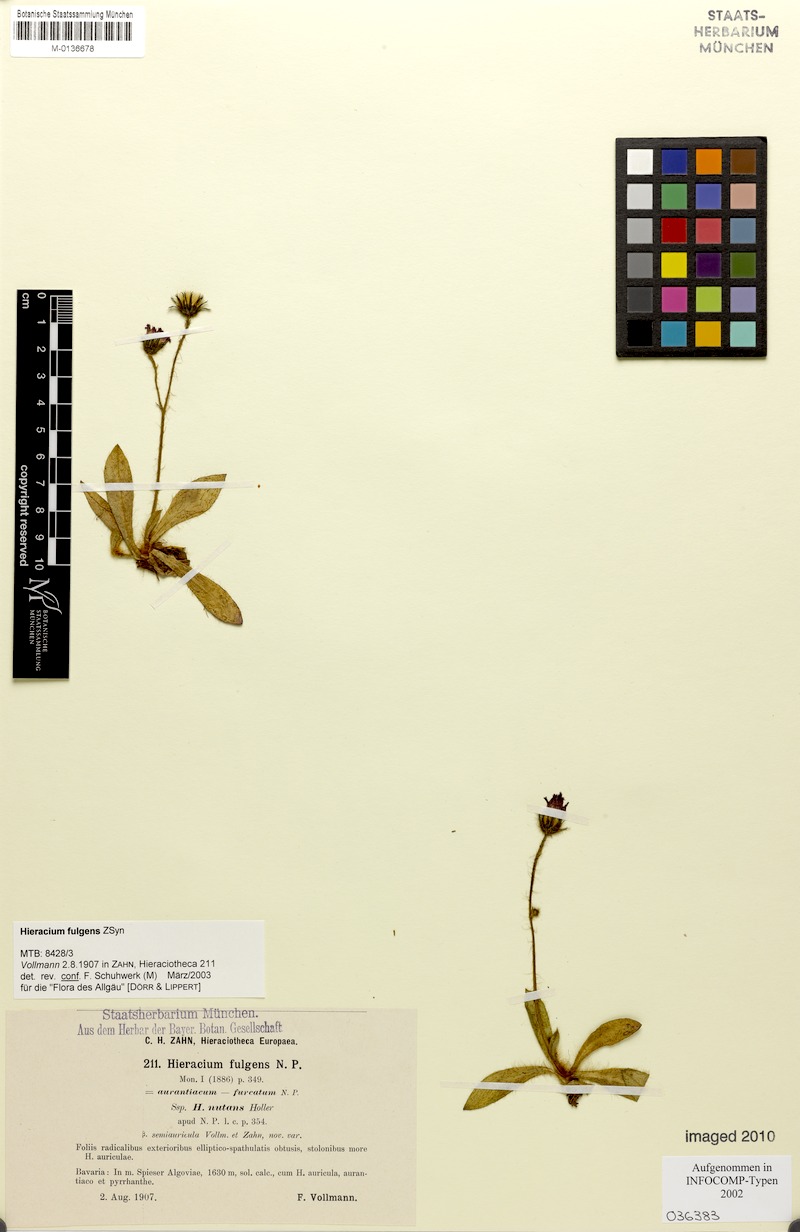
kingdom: Plantae
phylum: Tracheophyta
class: Magnoliopsida
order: Asterales
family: Asteraceae
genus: Pilosella
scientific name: Pilosella notha
